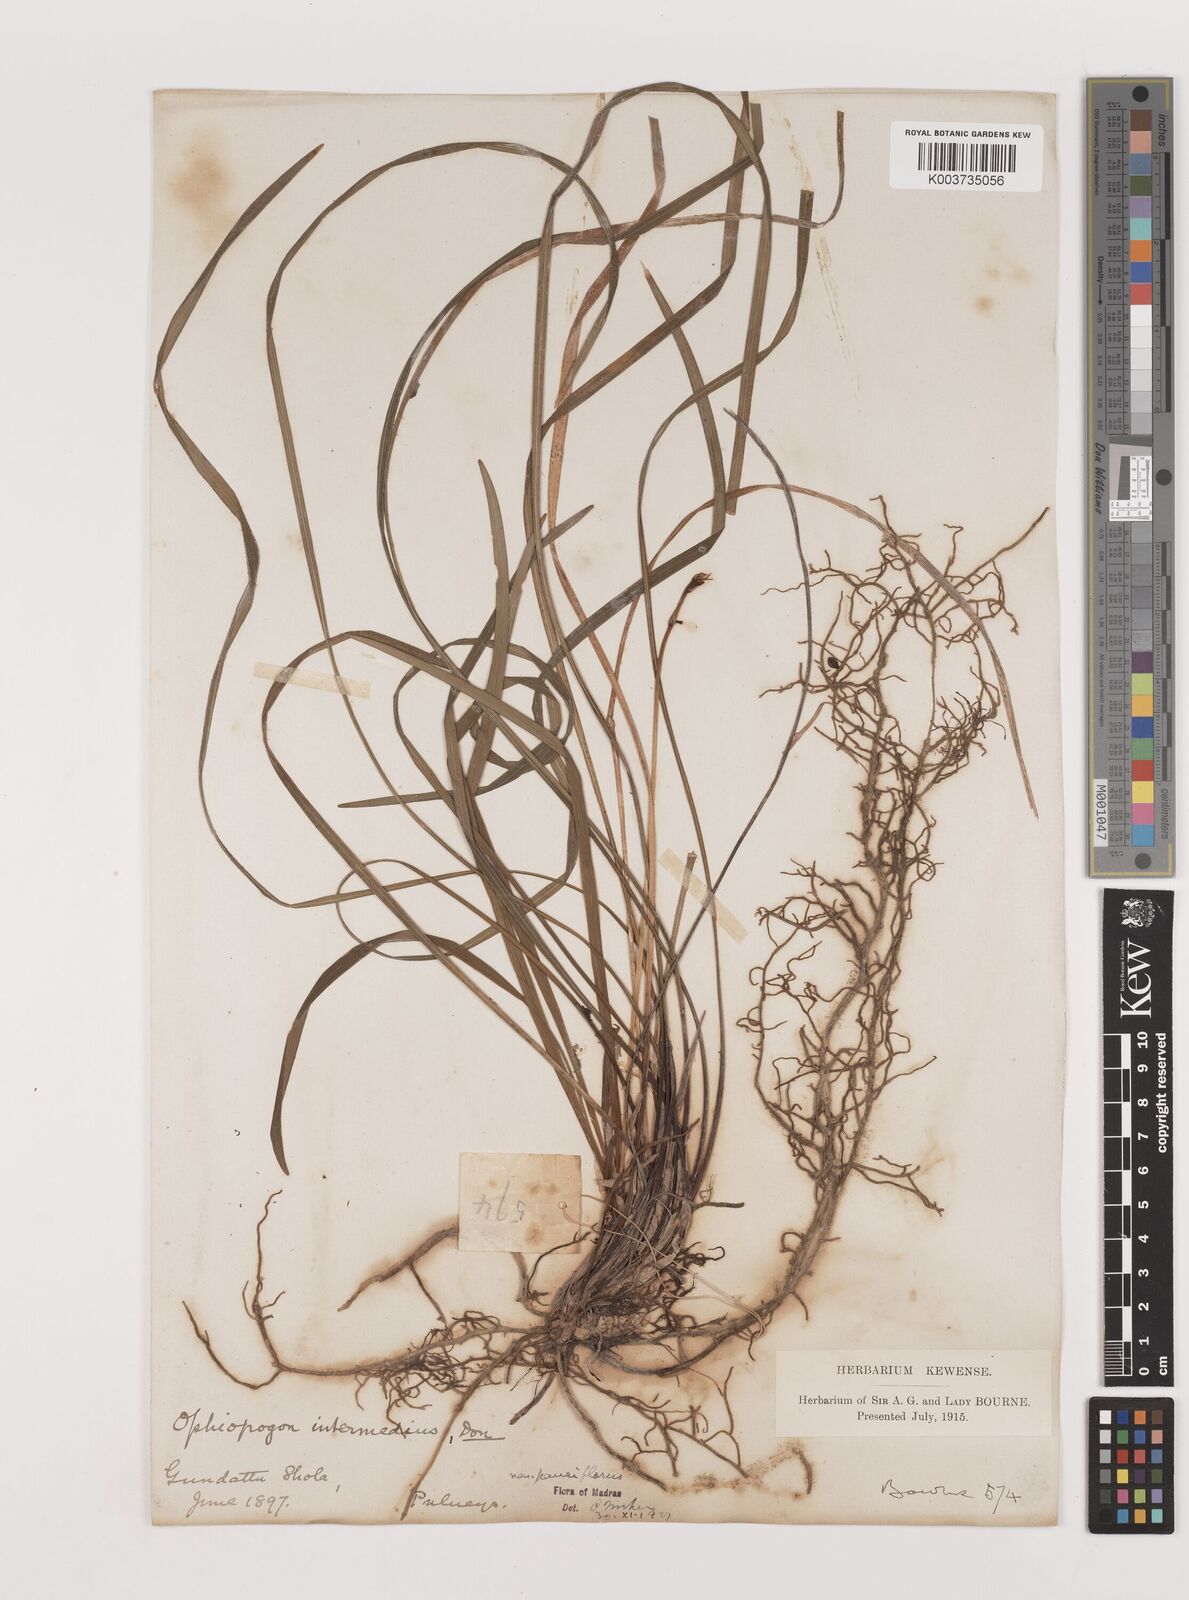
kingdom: Plantae
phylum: Tracheophyta
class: Liliopsida
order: Asparagales
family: Asparagaceae
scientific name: Asparagaceae
